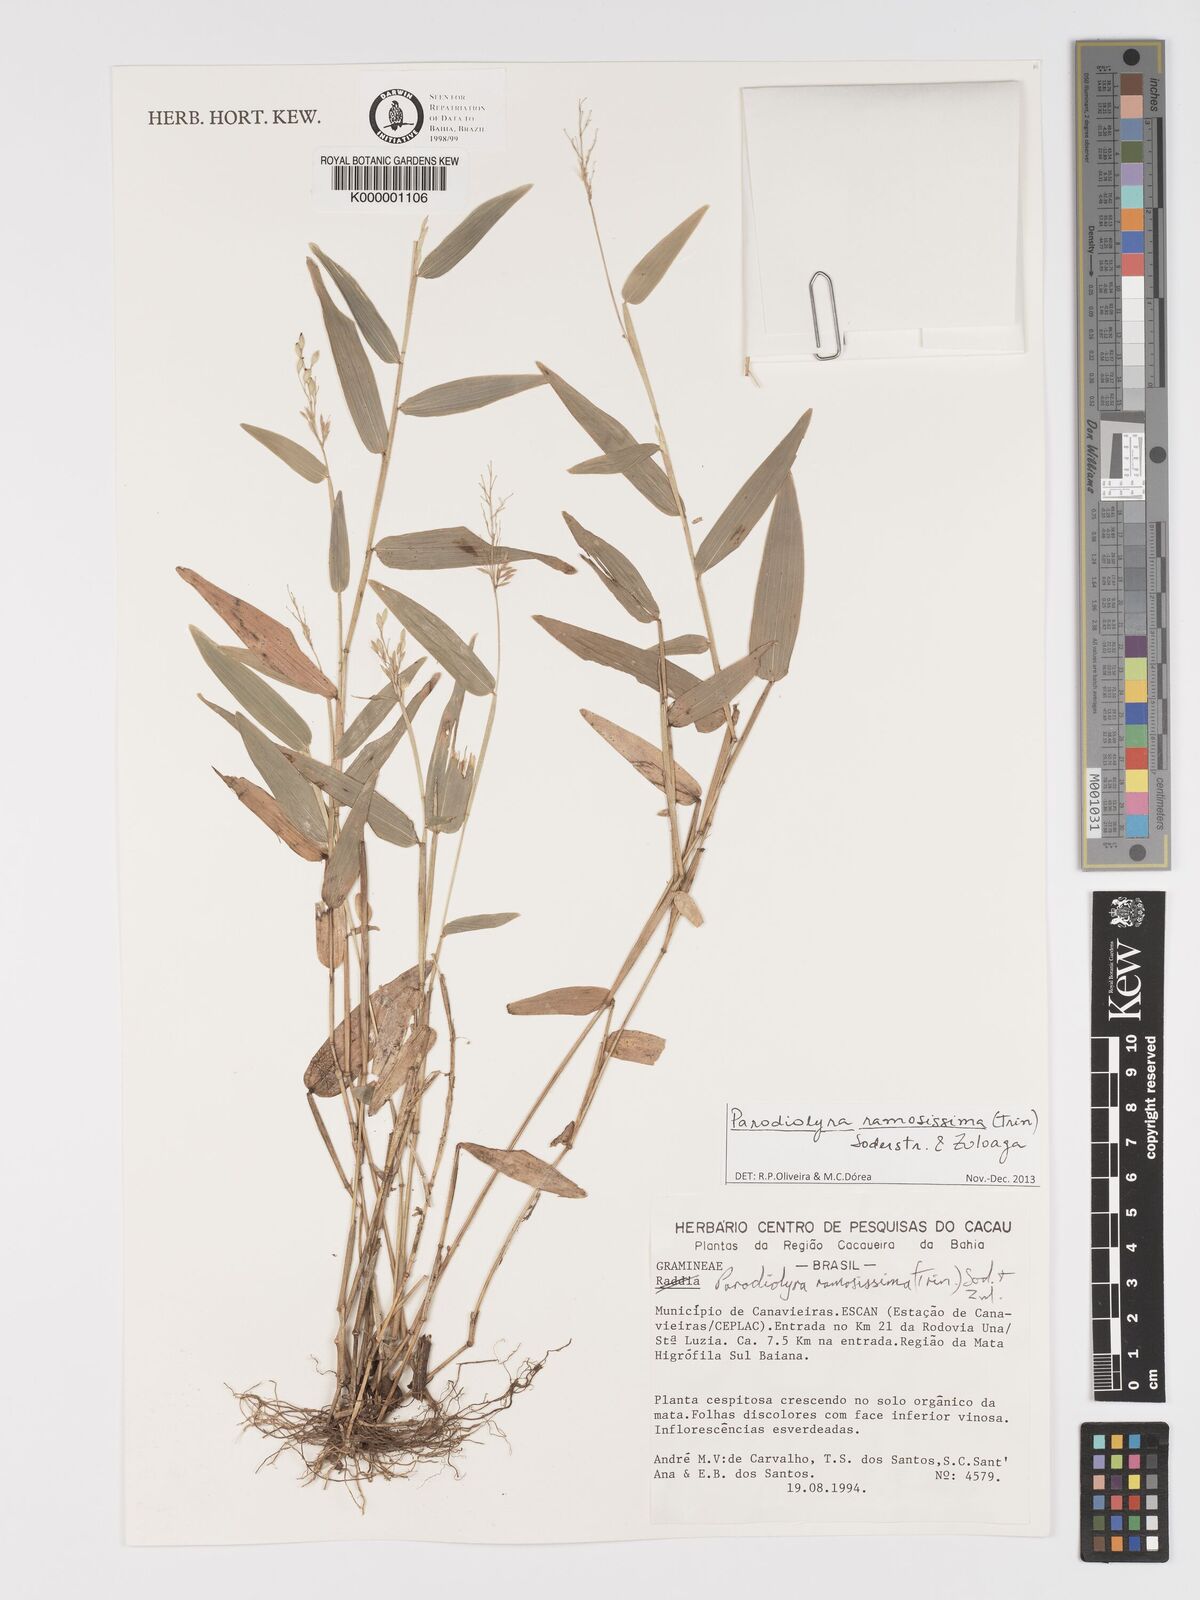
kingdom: Plantae
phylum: Tracheophyta
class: Liliopsida
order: Poales
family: Poaceae
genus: Parodiolyra
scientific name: Parodiolyra ramosissima
